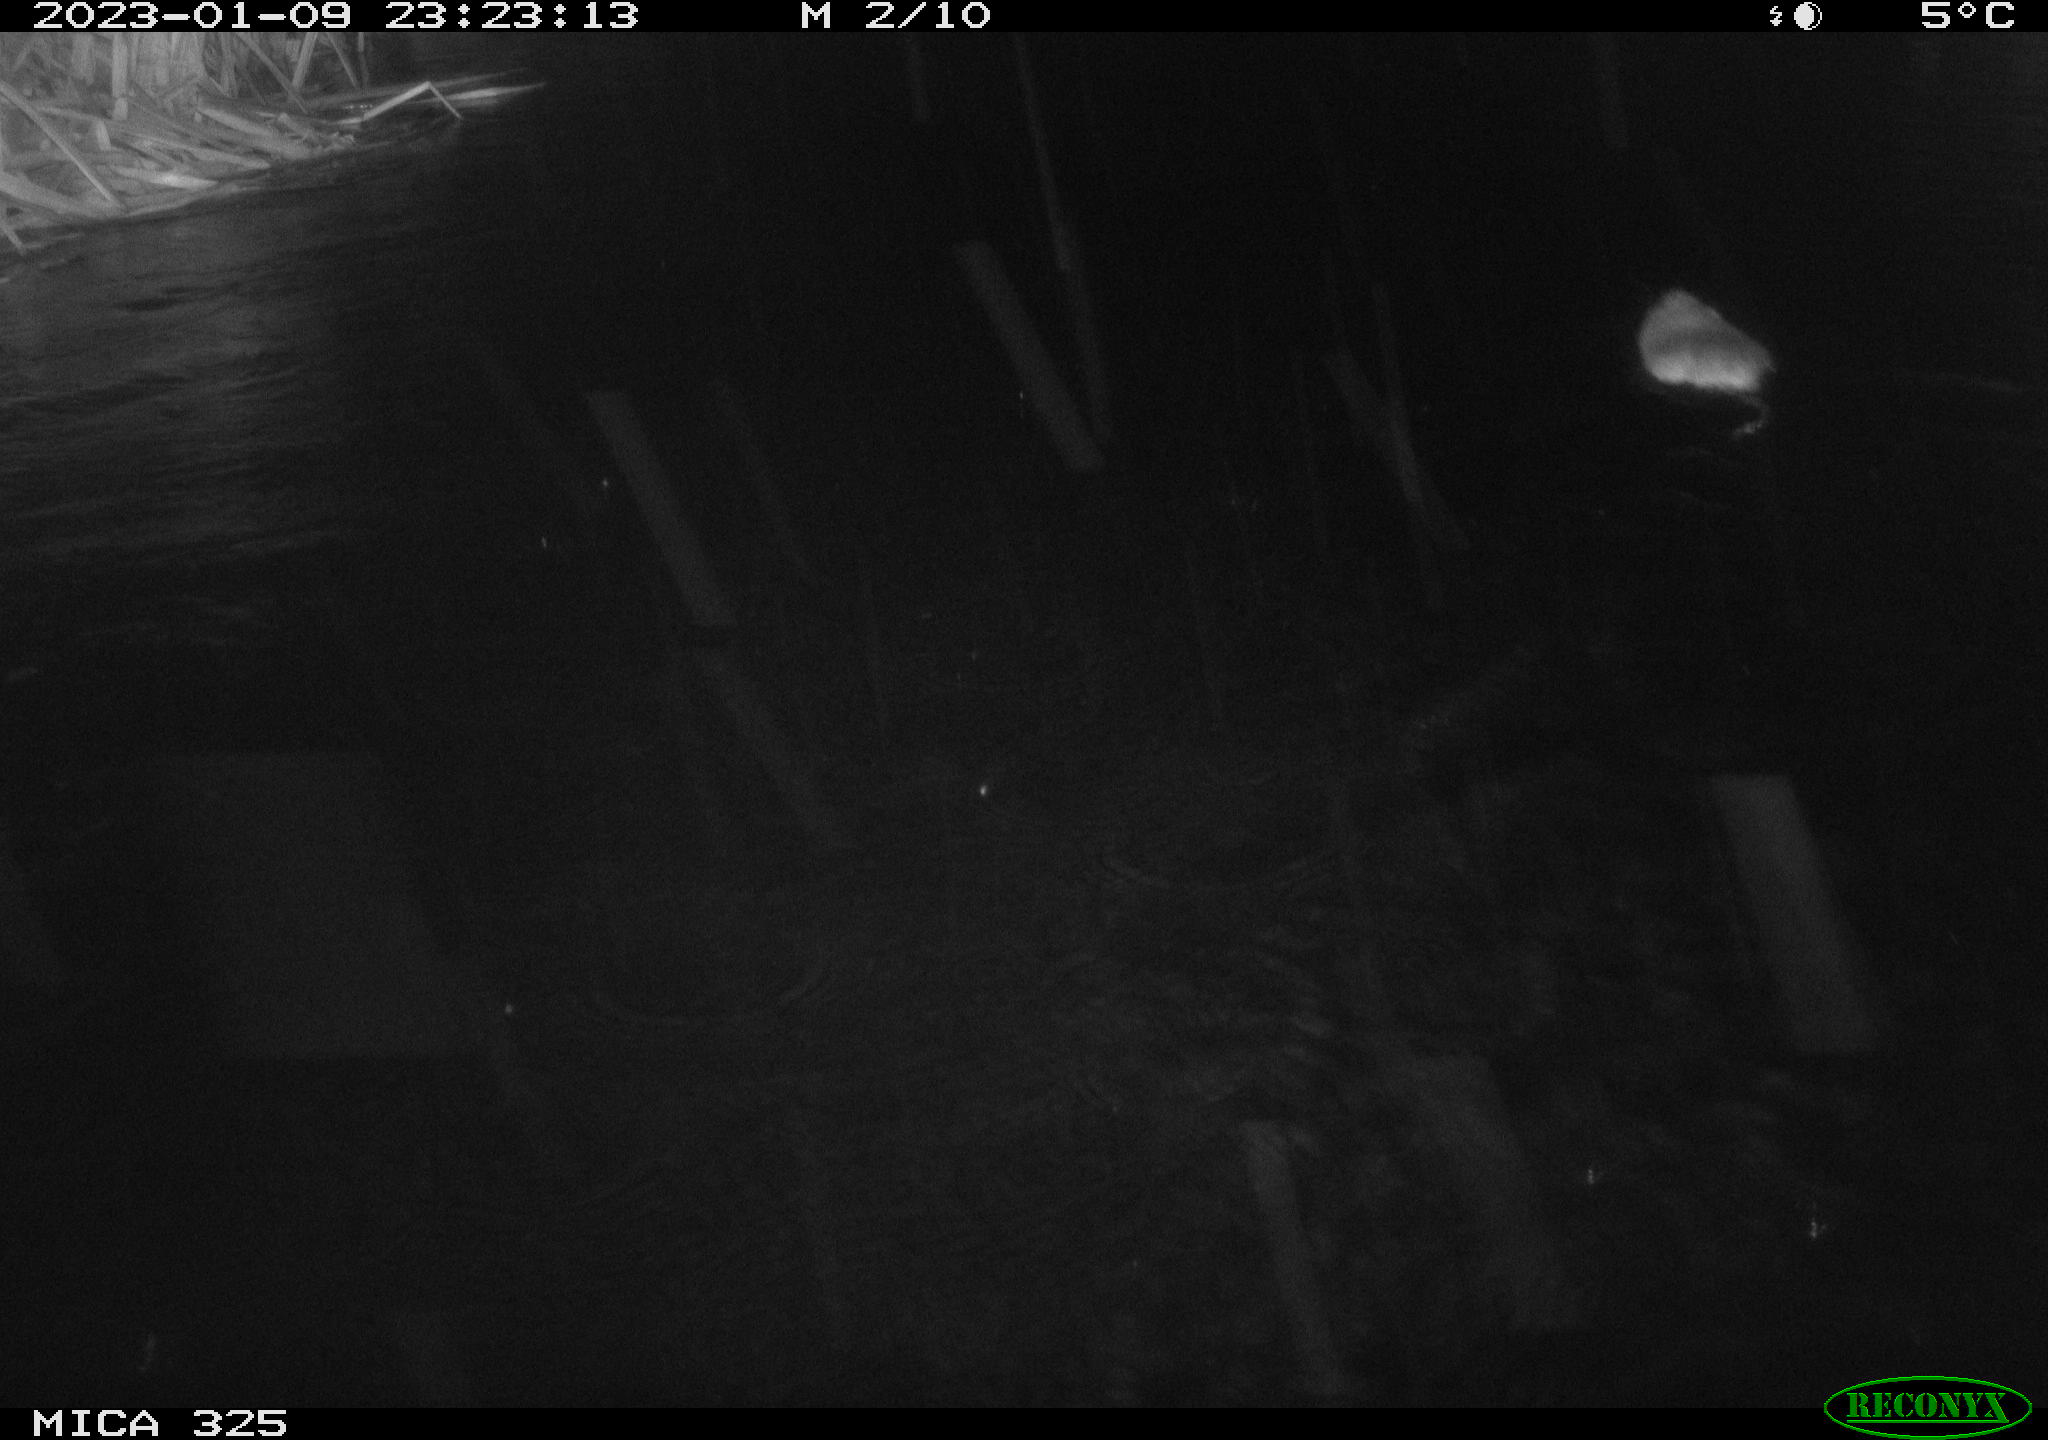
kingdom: Animalia
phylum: Chordata
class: Mammalia
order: Rodentia
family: Cricetidae
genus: Ondatra
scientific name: Ondatra zibethicus
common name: Muskrat
